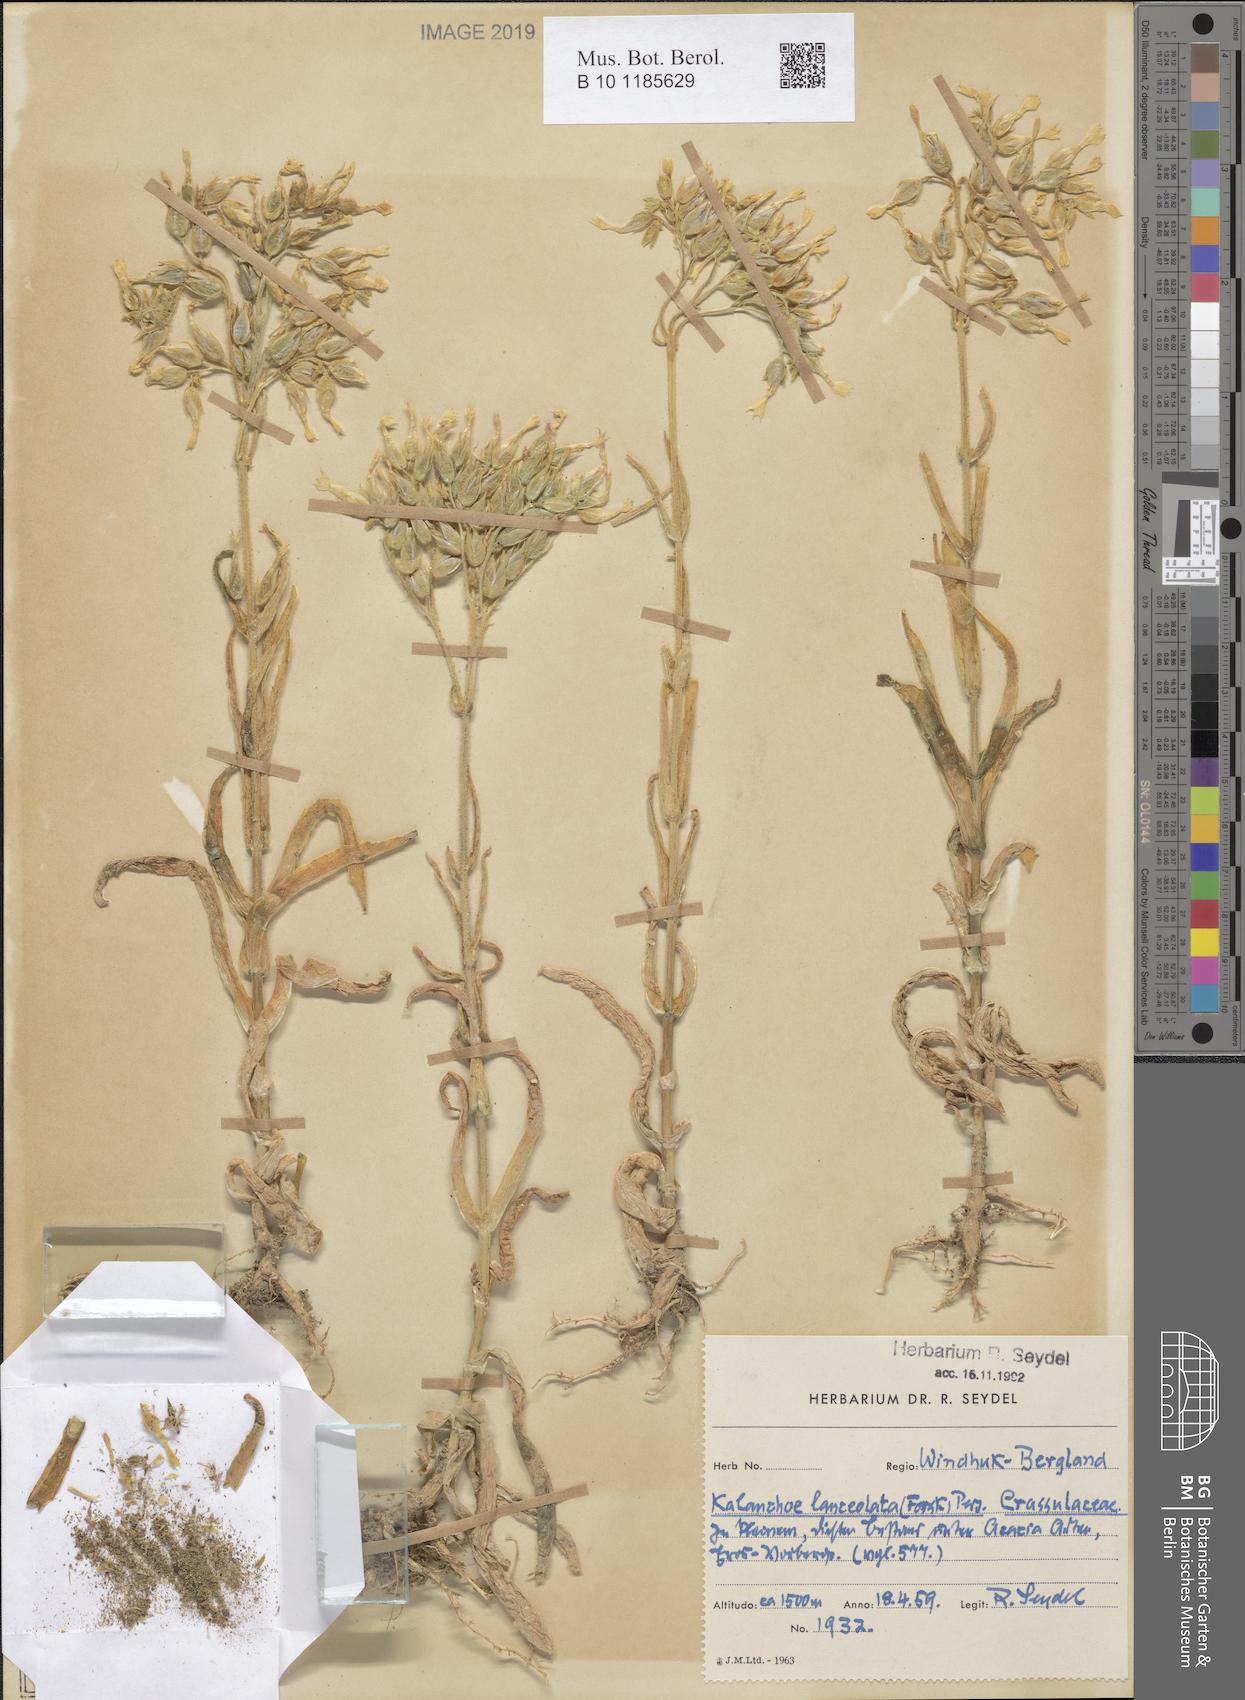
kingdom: Plantae
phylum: Tracheophyta
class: Magnoliopsida
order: Saxifragales
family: Crassulaceae
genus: Kalanchoe
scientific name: Kalanchoe lanceolata
